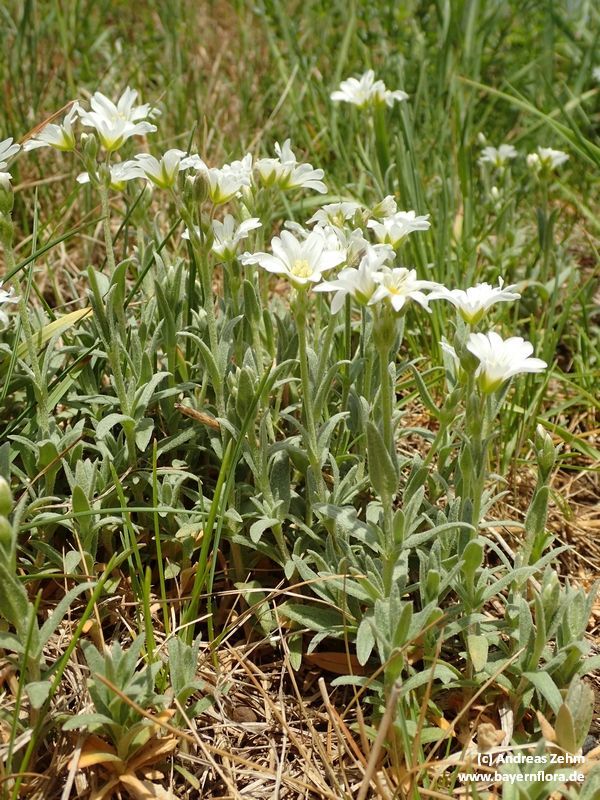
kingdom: Plantae
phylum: Tracheophyta
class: Magnoliopsida
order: Caryophyllales
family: Caryophyllaceae
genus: Cerastium
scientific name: Cerastium tomentosum
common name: Snow-in-summer
